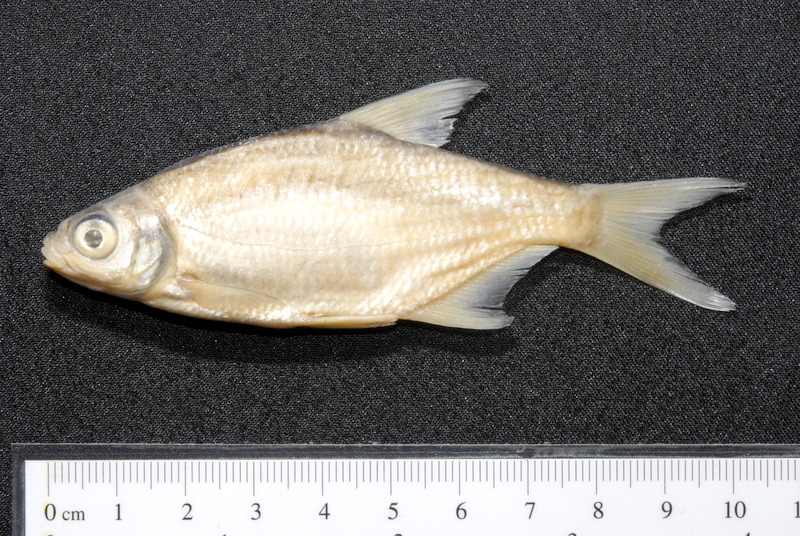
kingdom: Animalia
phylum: Chordata
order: Cypriniformes
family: Cyprinidae
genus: Blicca
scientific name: Blicca bjoerkna
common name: White bream
